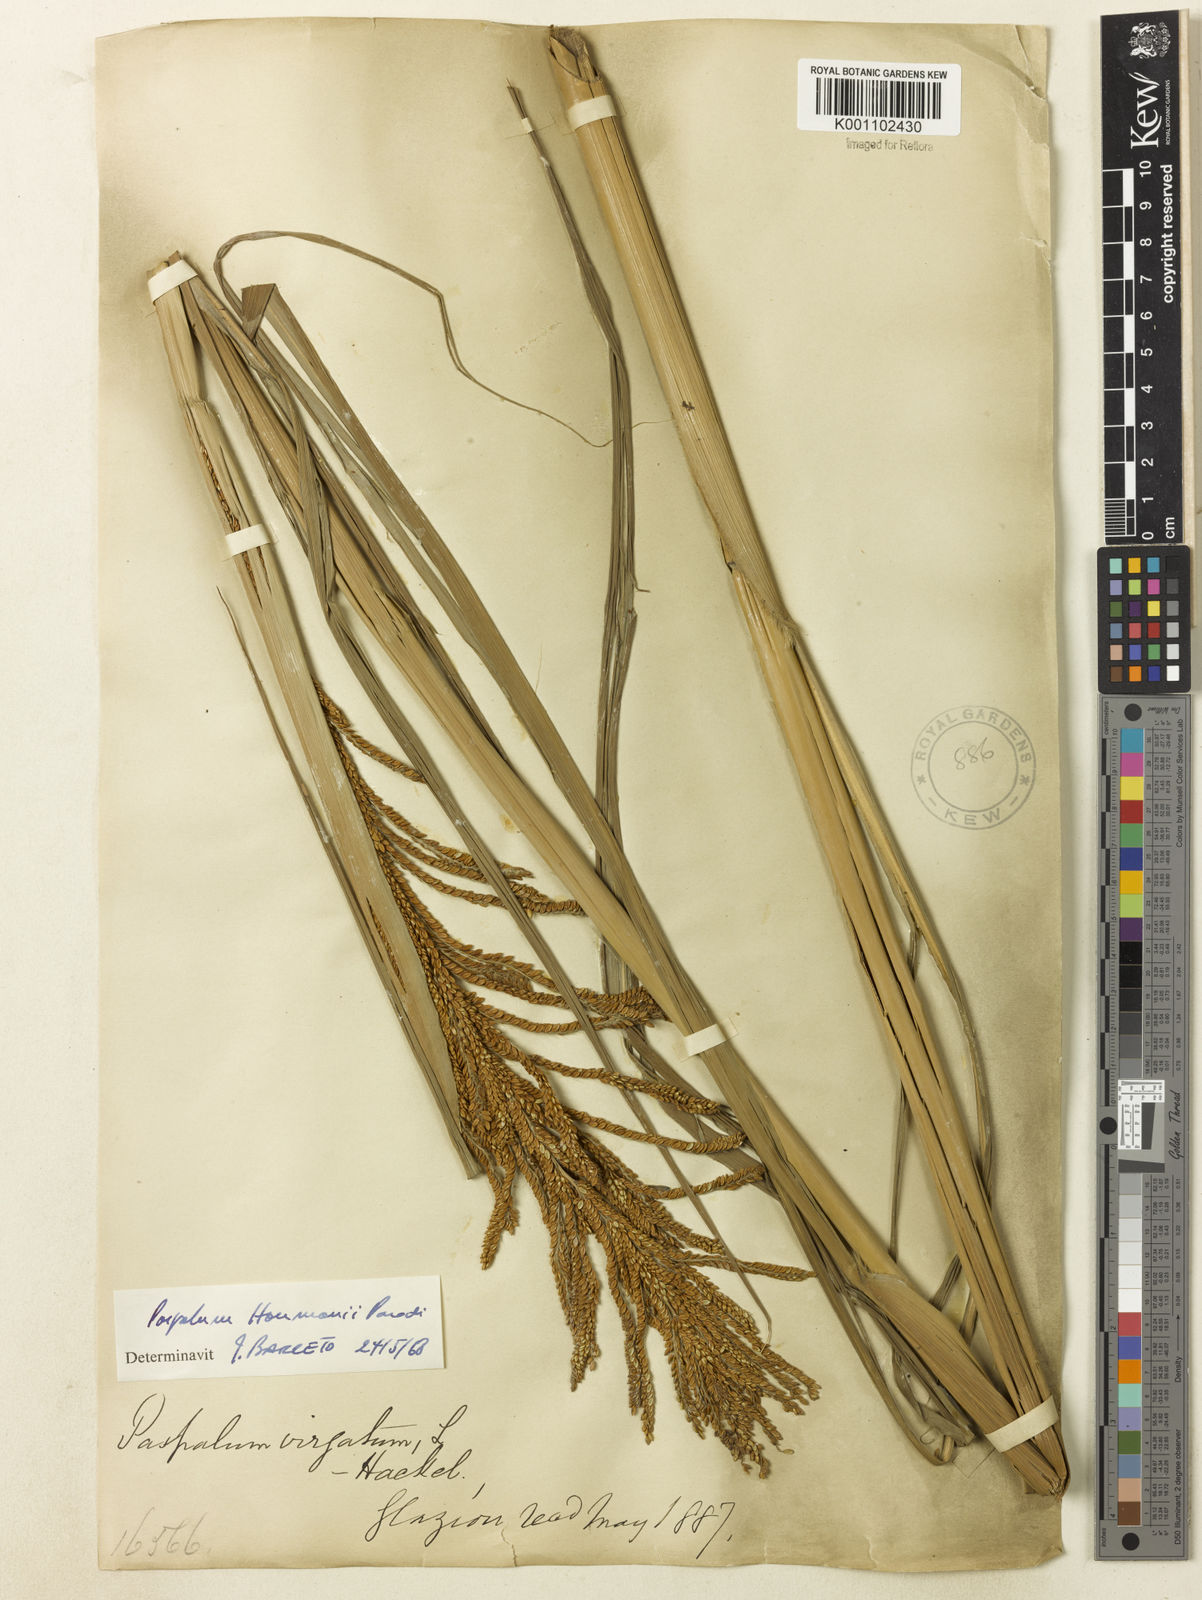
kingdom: Plantae
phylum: Tracheophyta
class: Liliopsida
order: Poales
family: Poaceae
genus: Paspalum
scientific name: Paspalum exaltatum
